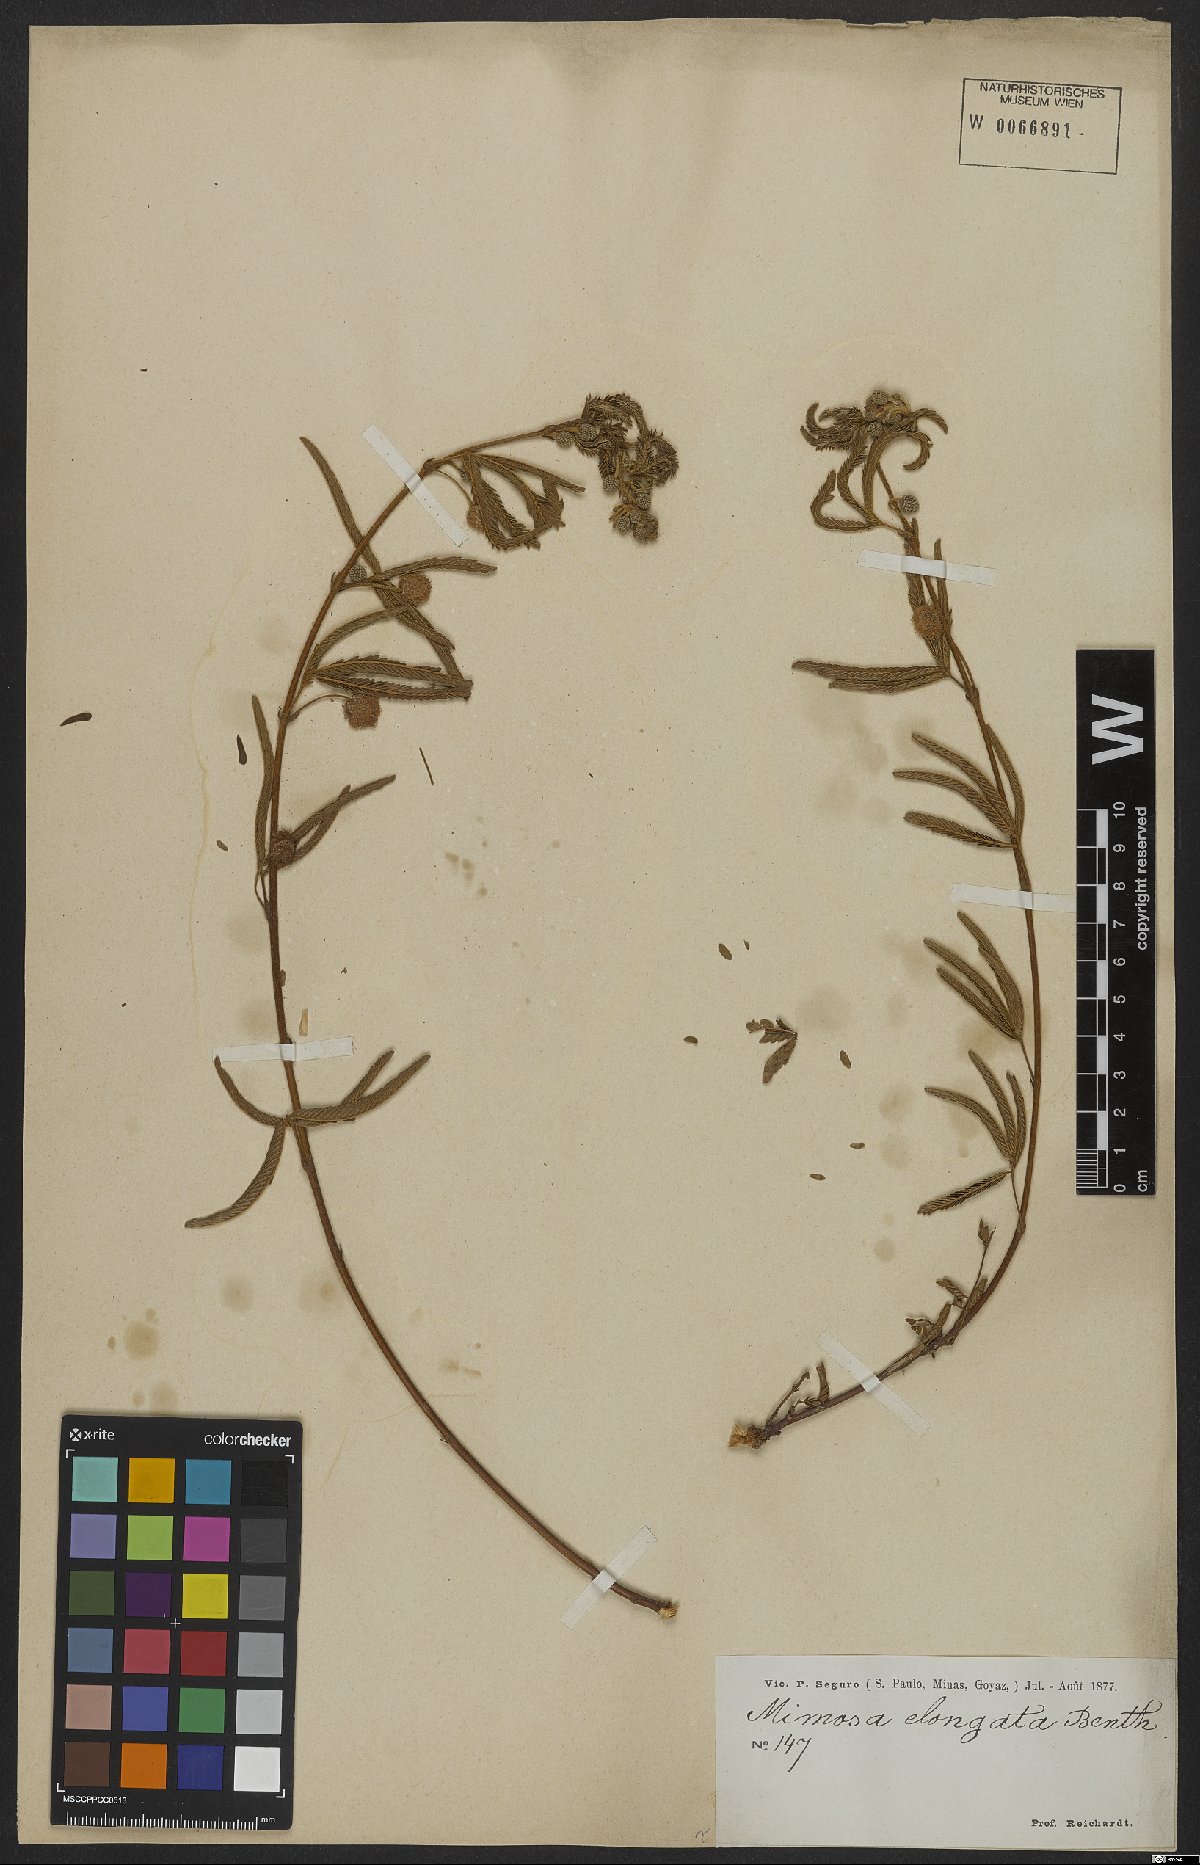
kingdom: Plantae
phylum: Tracheophyta
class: Magnoliopsida
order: Fabales
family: Fabaceae
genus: Mimosa
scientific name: Mimosa distans
